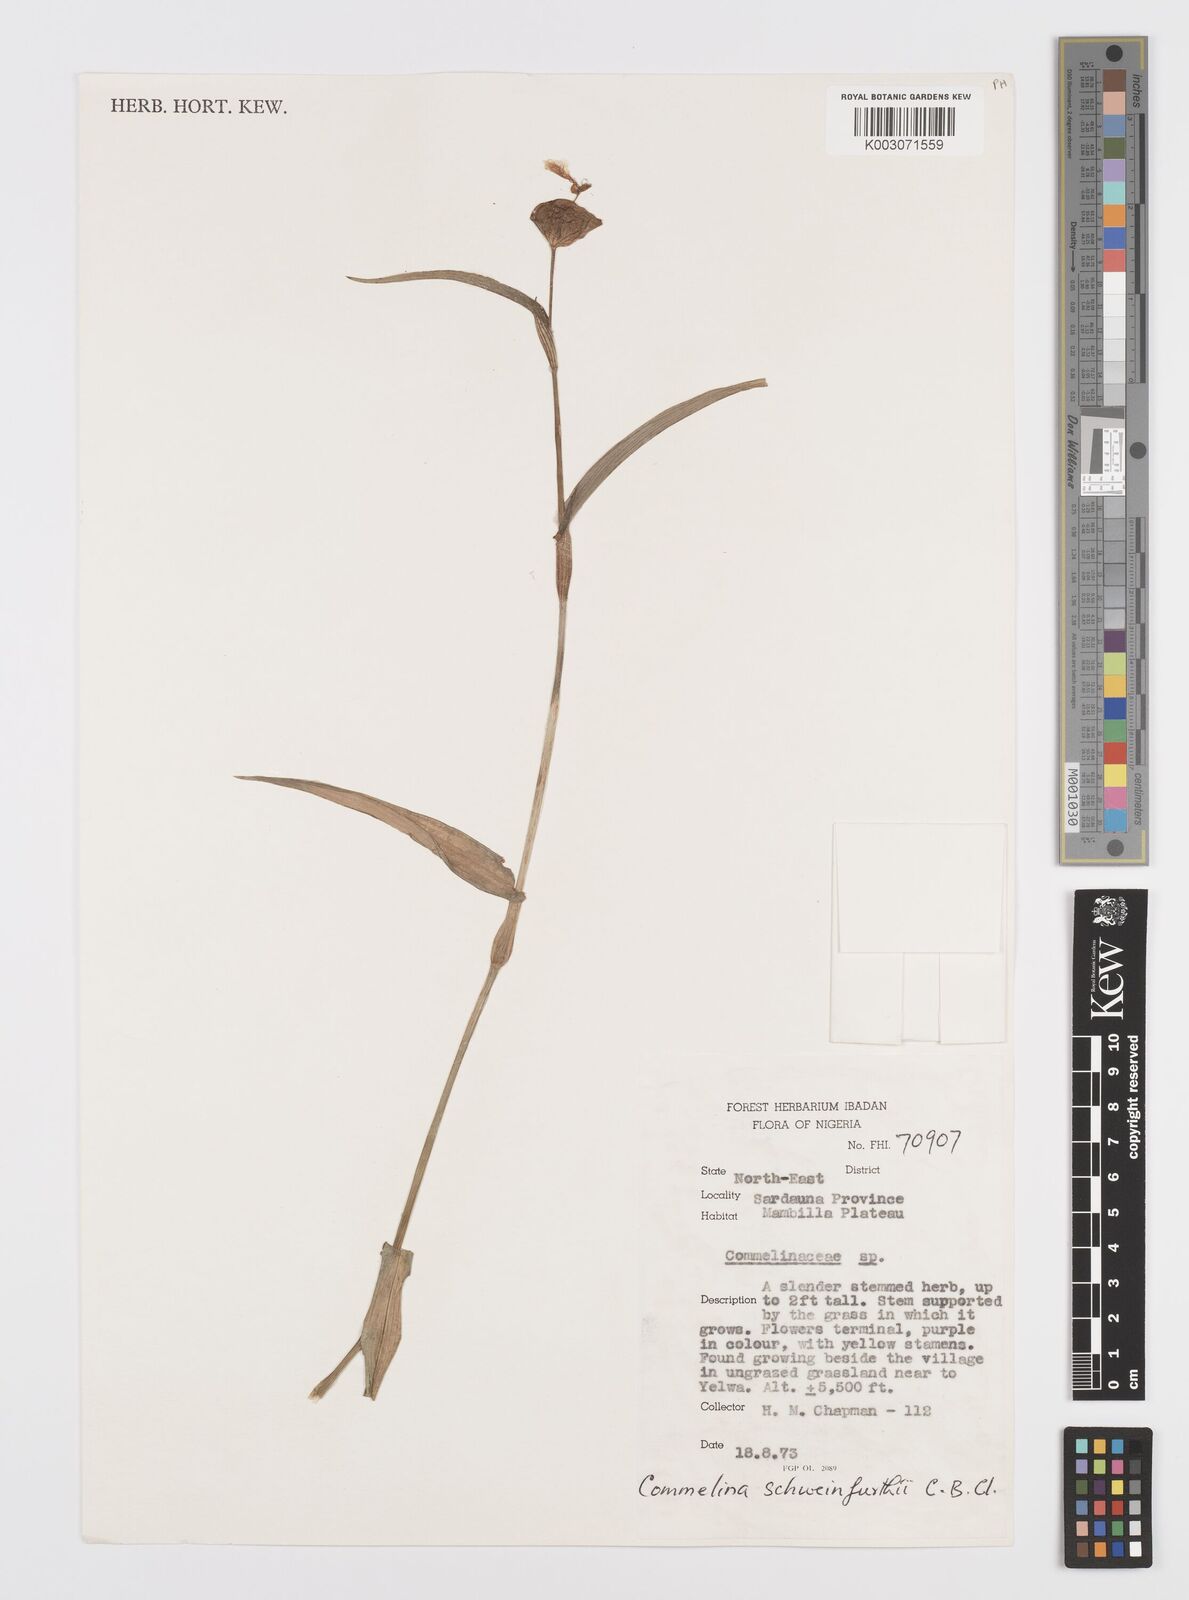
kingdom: Plantae
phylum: Tracheophyta
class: Liliopsida
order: Commelinales
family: Commelinaceae
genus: Commelina
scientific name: Commelina schweinfurthii
